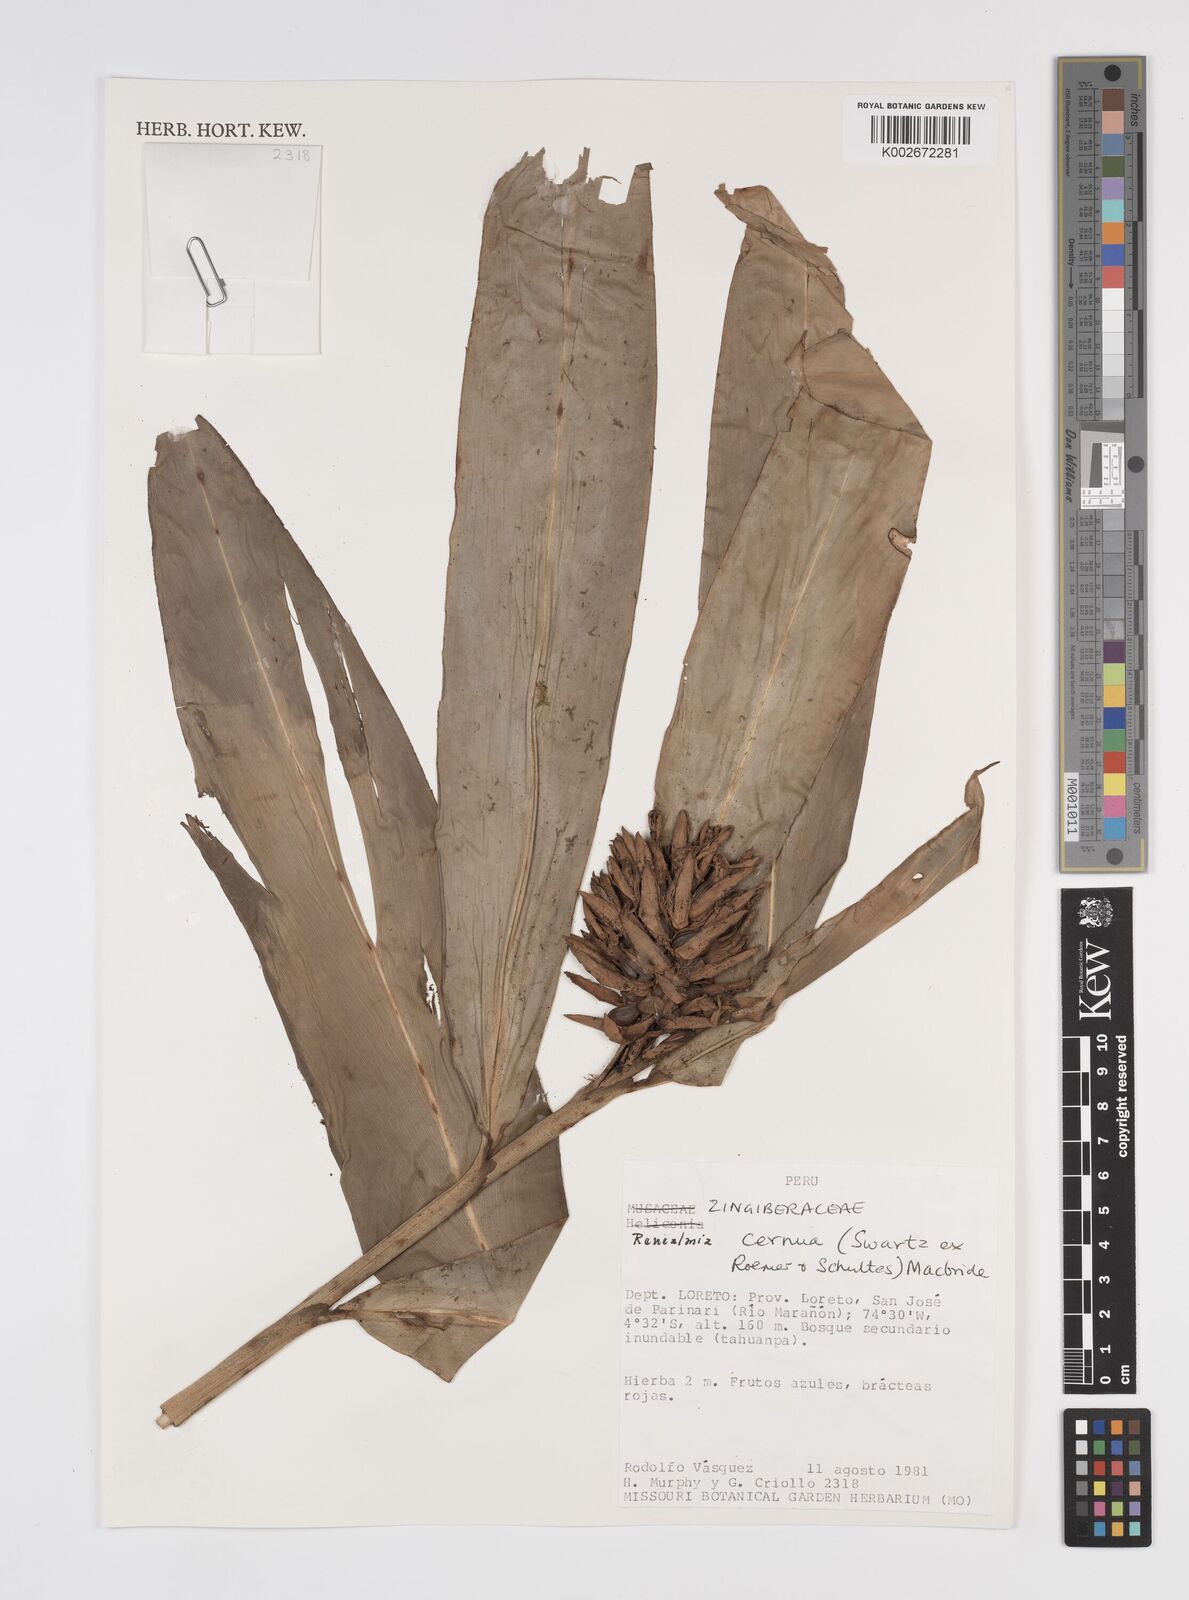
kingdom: Plantae
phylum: Tracheophyta
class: Liliopsida
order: Zingiberales
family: Zingiberaceae
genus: Renealmia
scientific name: Renealmia cernua
